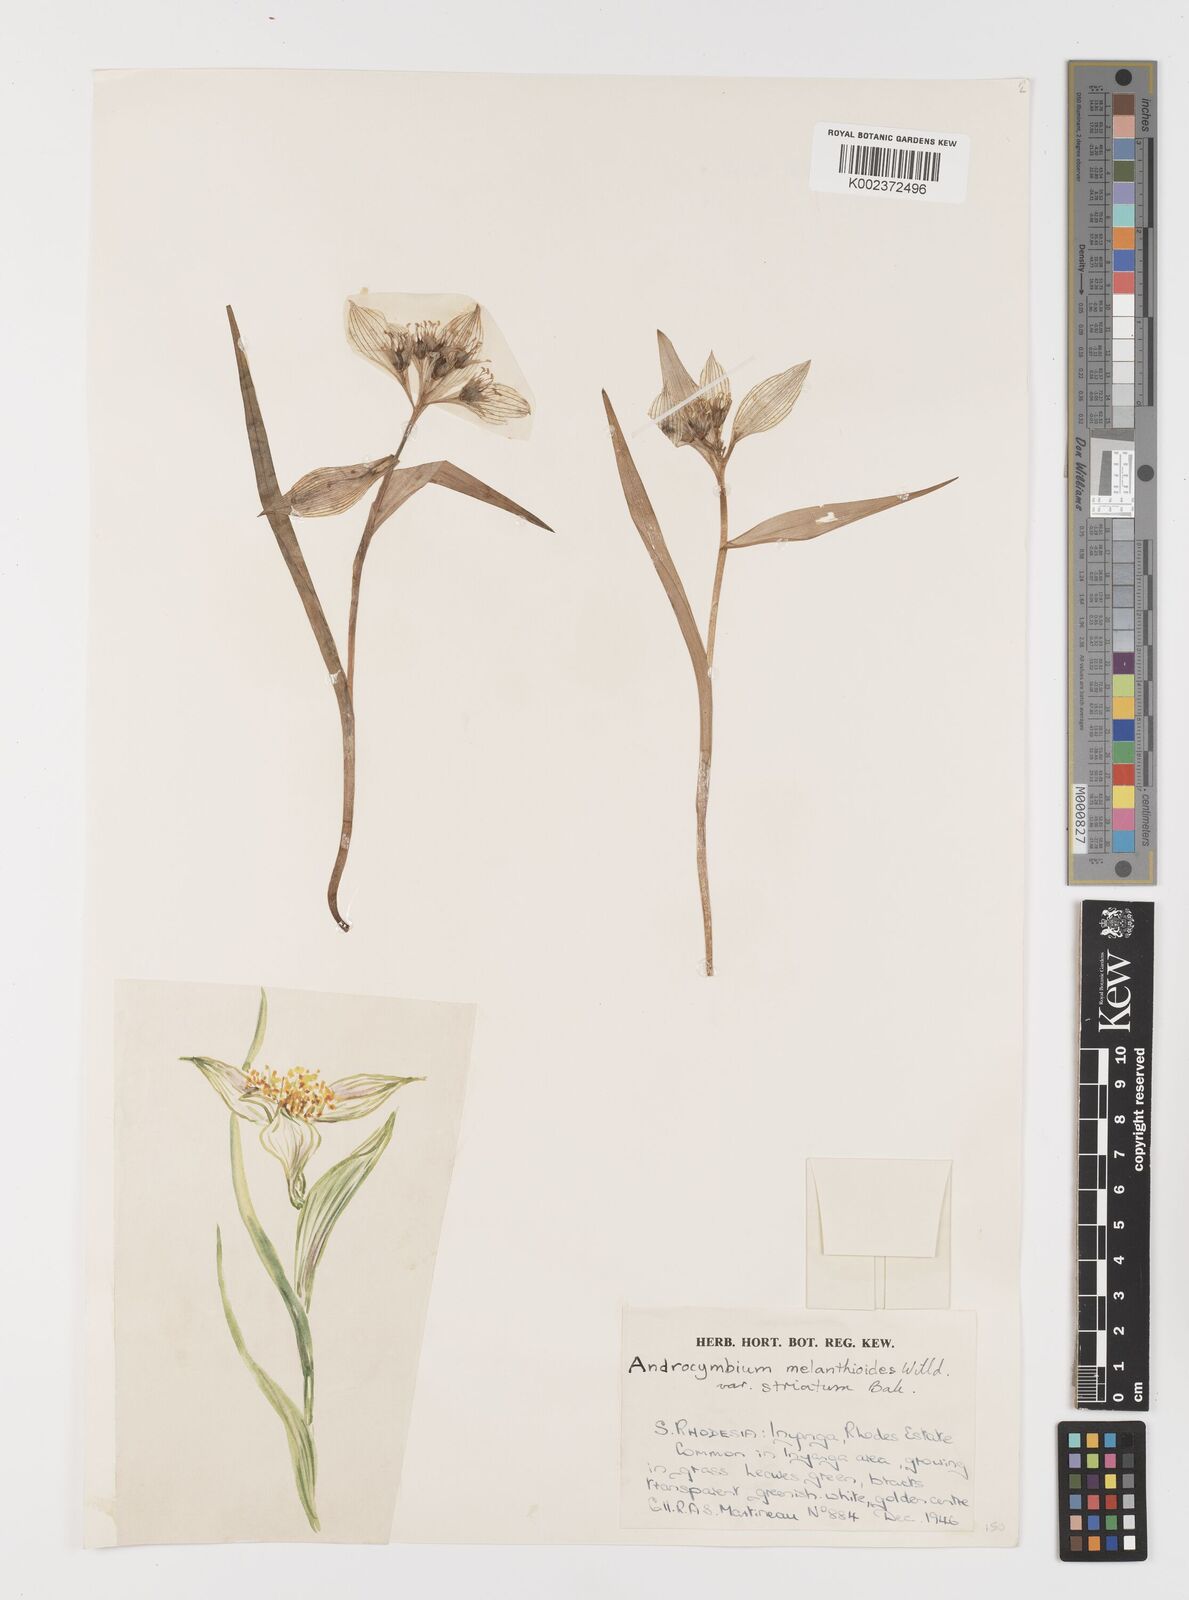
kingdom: Plantae
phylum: Tracheophyta
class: Liliopsida
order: Liliales
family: Colchicaceae
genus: Colchicum
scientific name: Colchicum striatum
